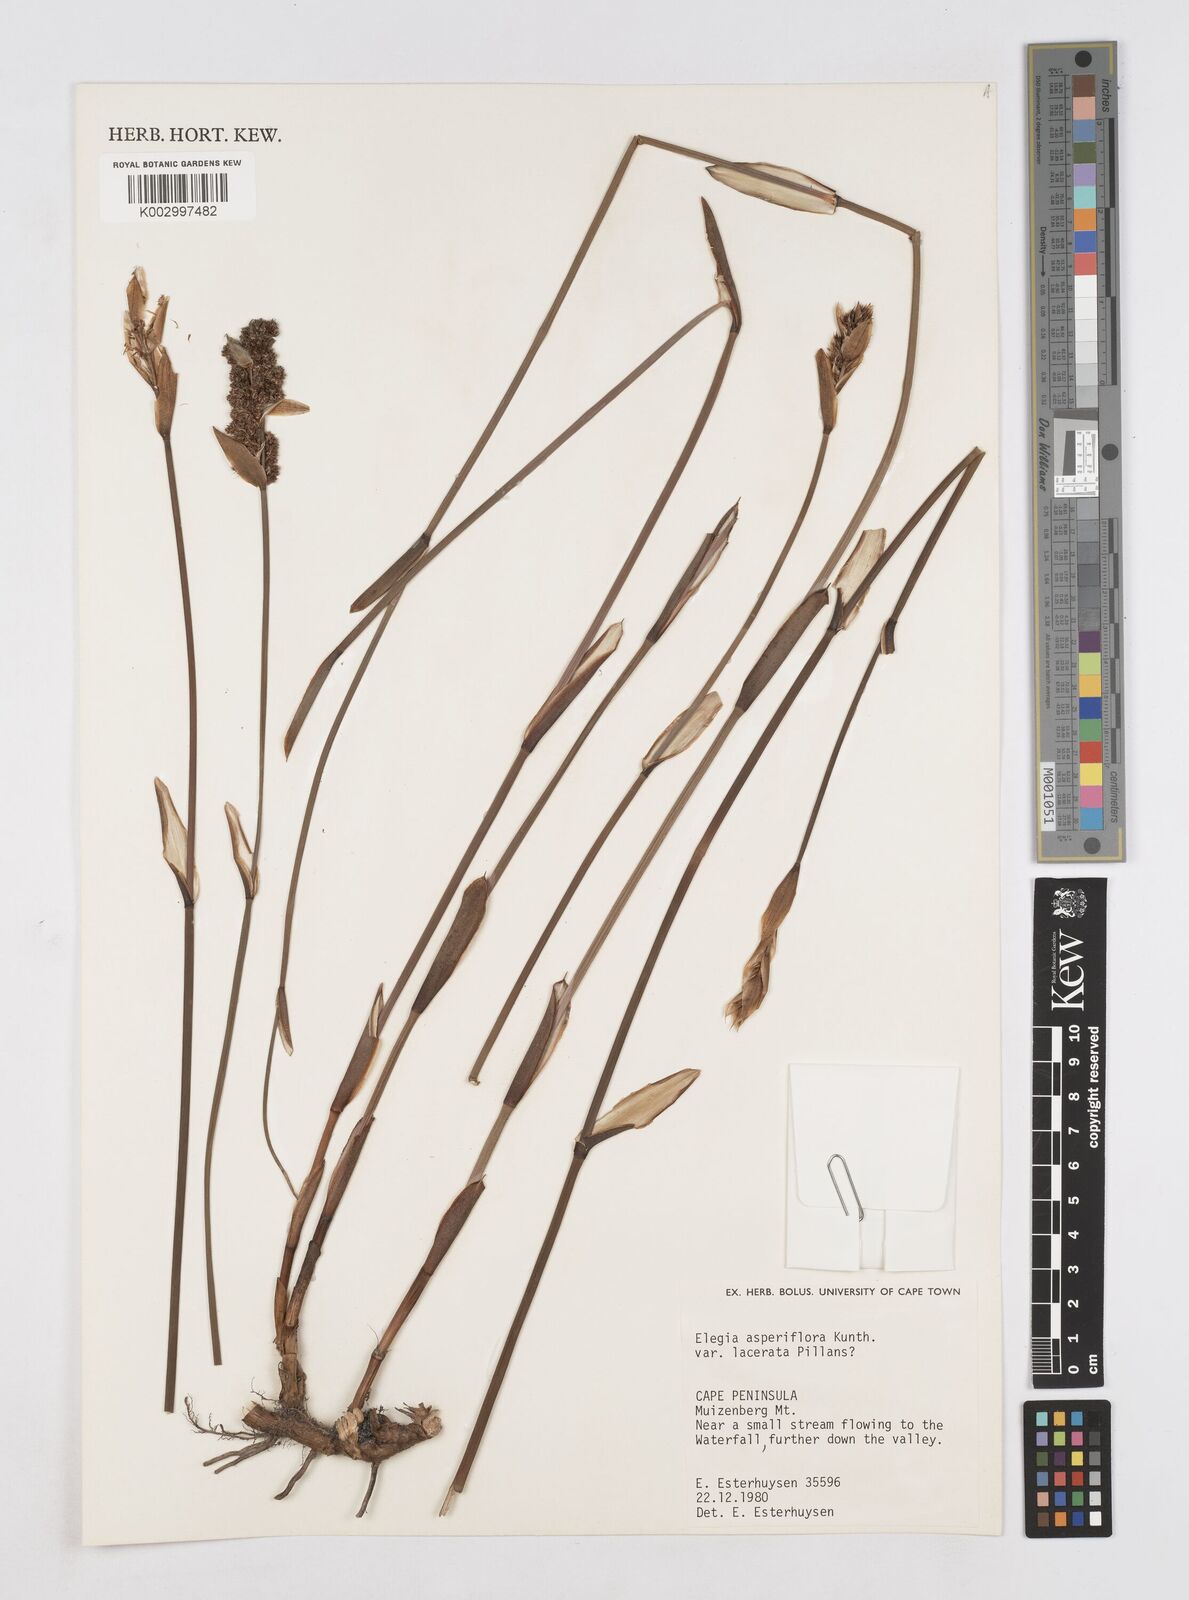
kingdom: Plantae
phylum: Tracheophyta
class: Liliopsida
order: Poales
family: Restionaceae
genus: Elegia
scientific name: Elegia asperiflora
